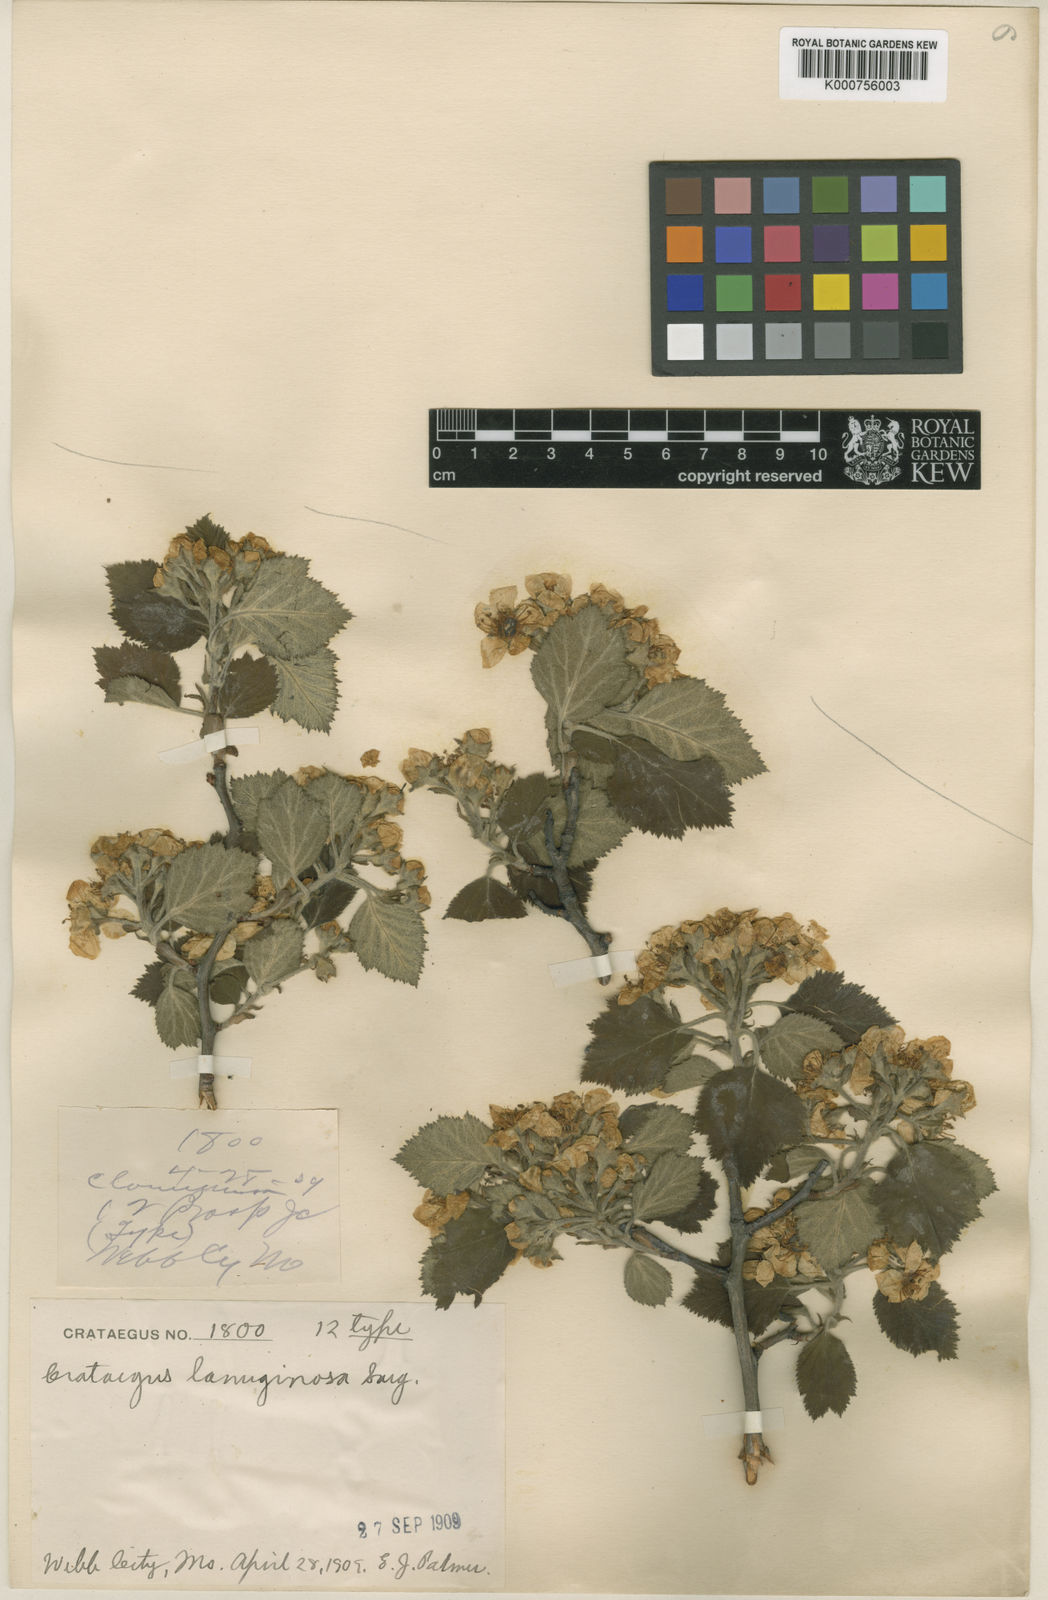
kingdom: Plantae
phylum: Tracheophyta
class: Magnoliopsida
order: Rosales
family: Rosaceae
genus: Crataegus
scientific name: Crataegus lanuginosa
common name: Woolly hawthorn
